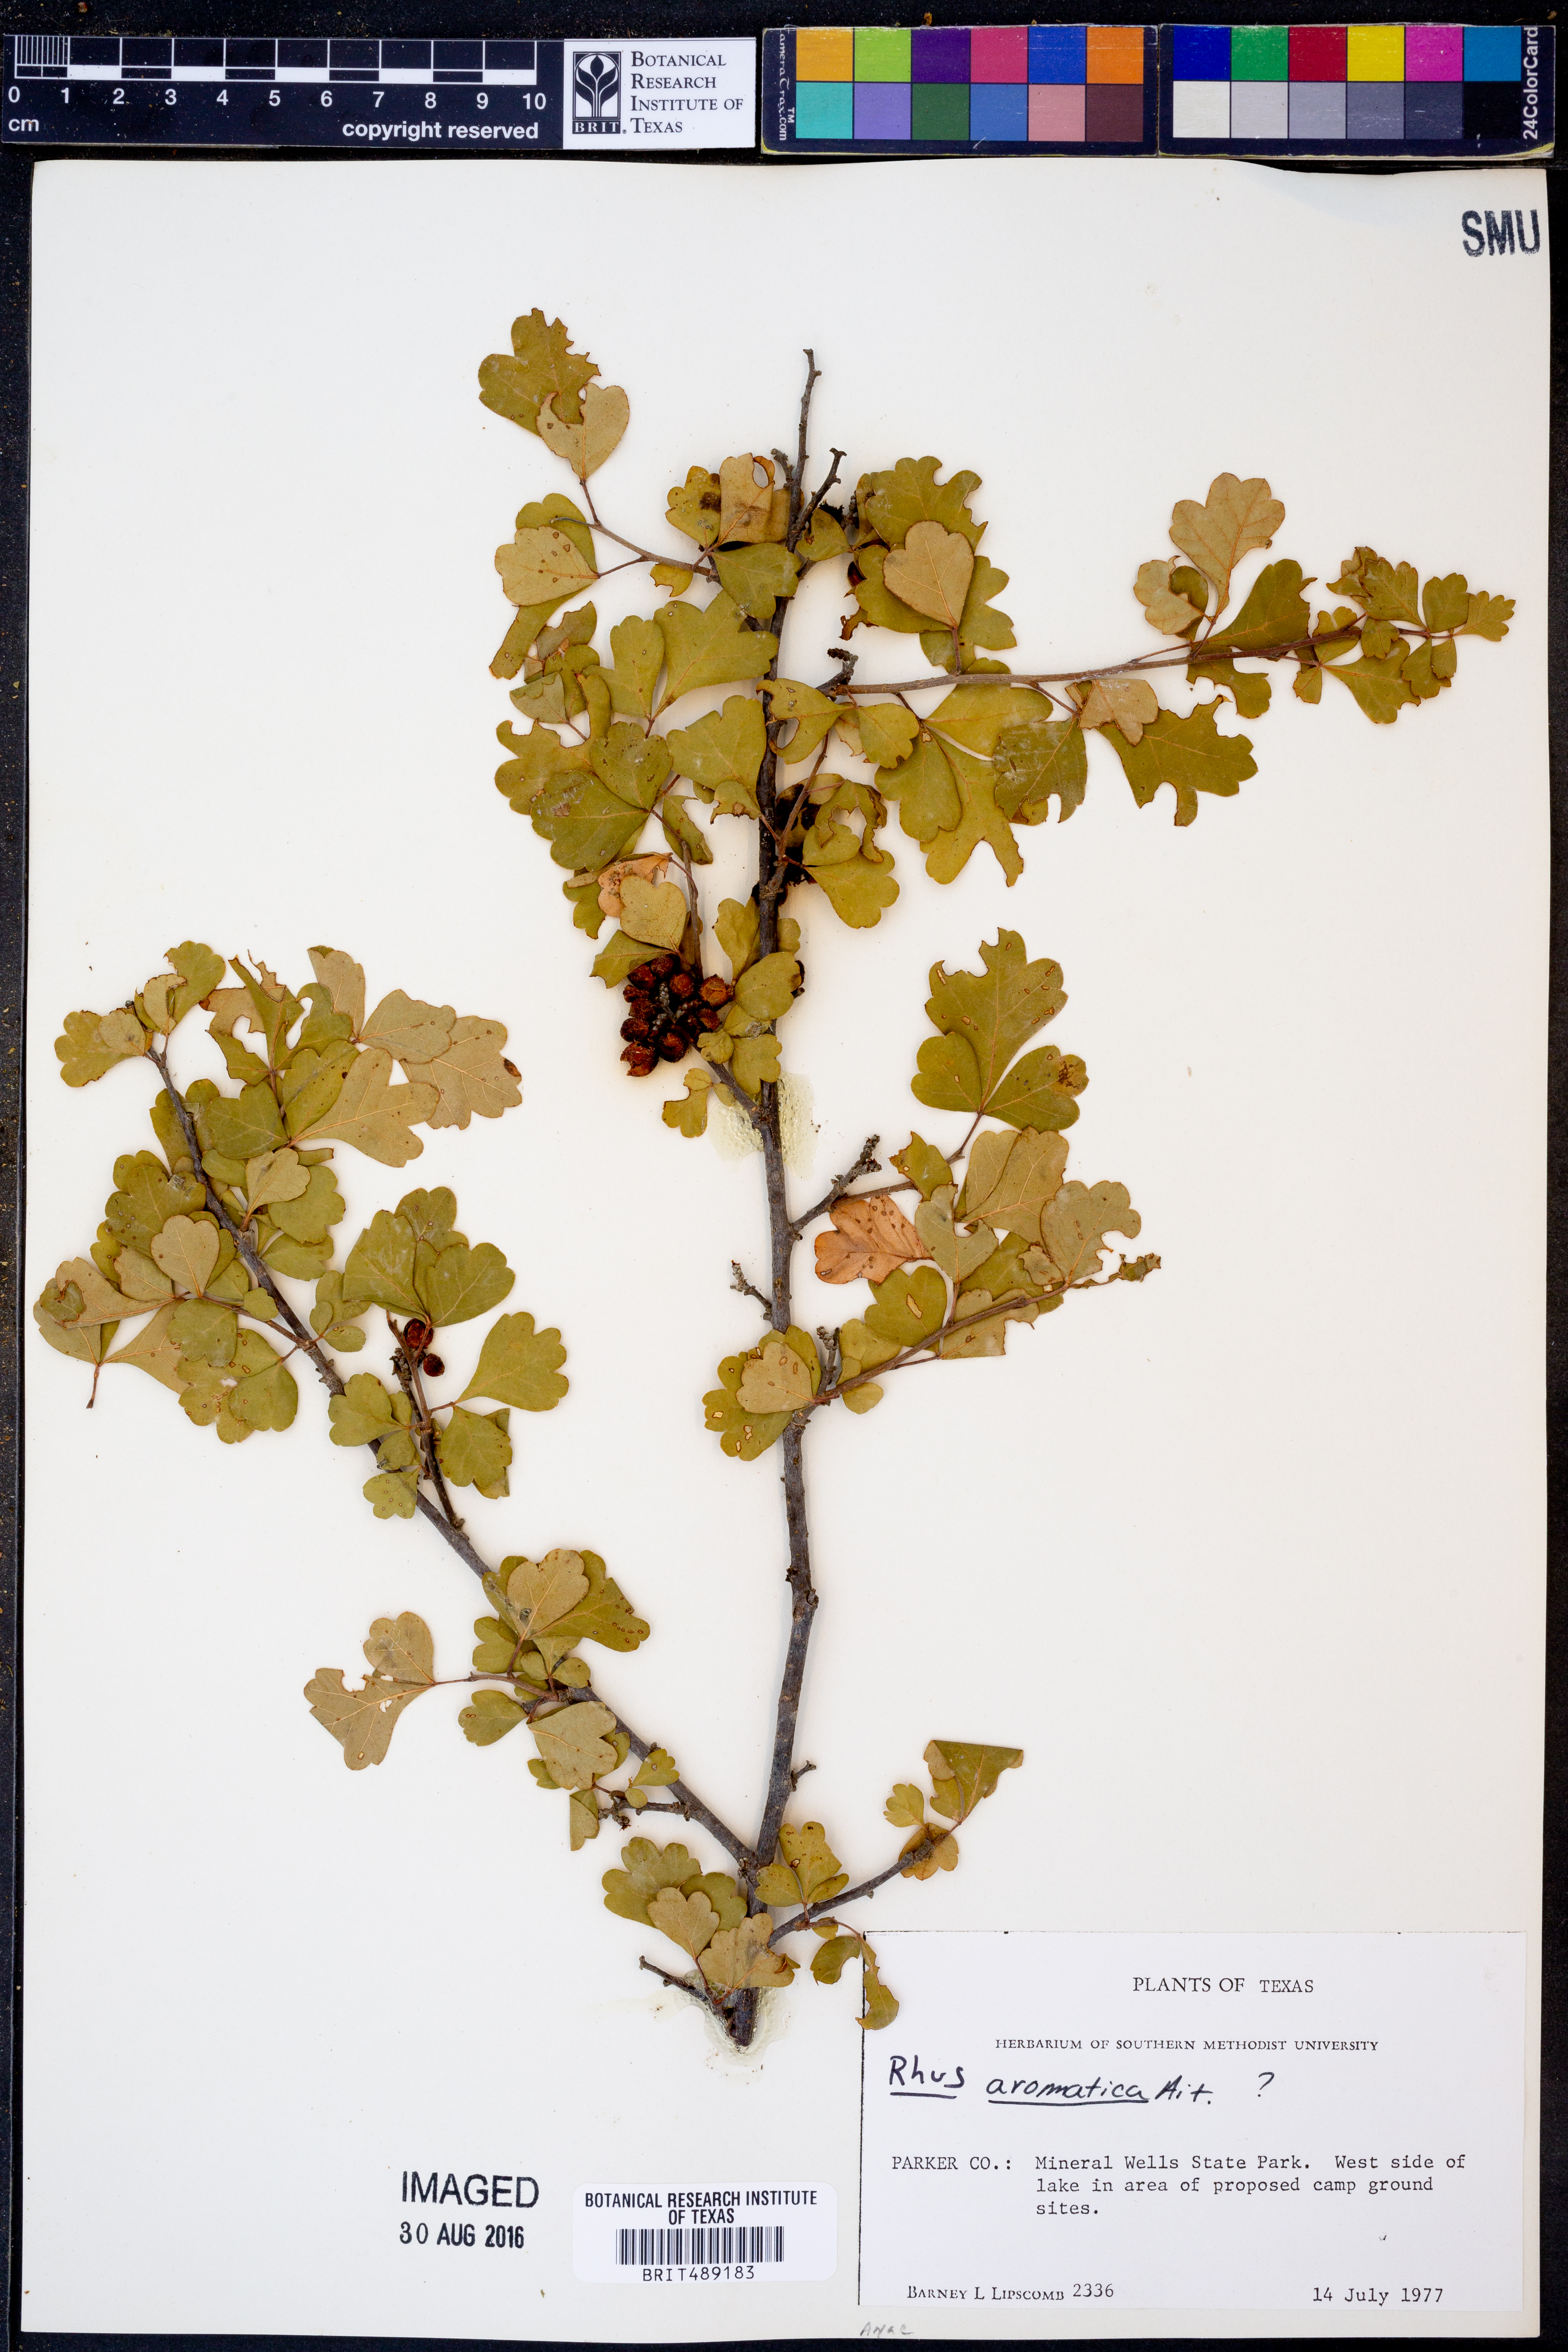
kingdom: Plantae
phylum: Tracheophyta
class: Magnoliopsida
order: Sapindales
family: Anacardiaceae
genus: Rhus
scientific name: Rhus aromatica
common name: Aromatic sumac
